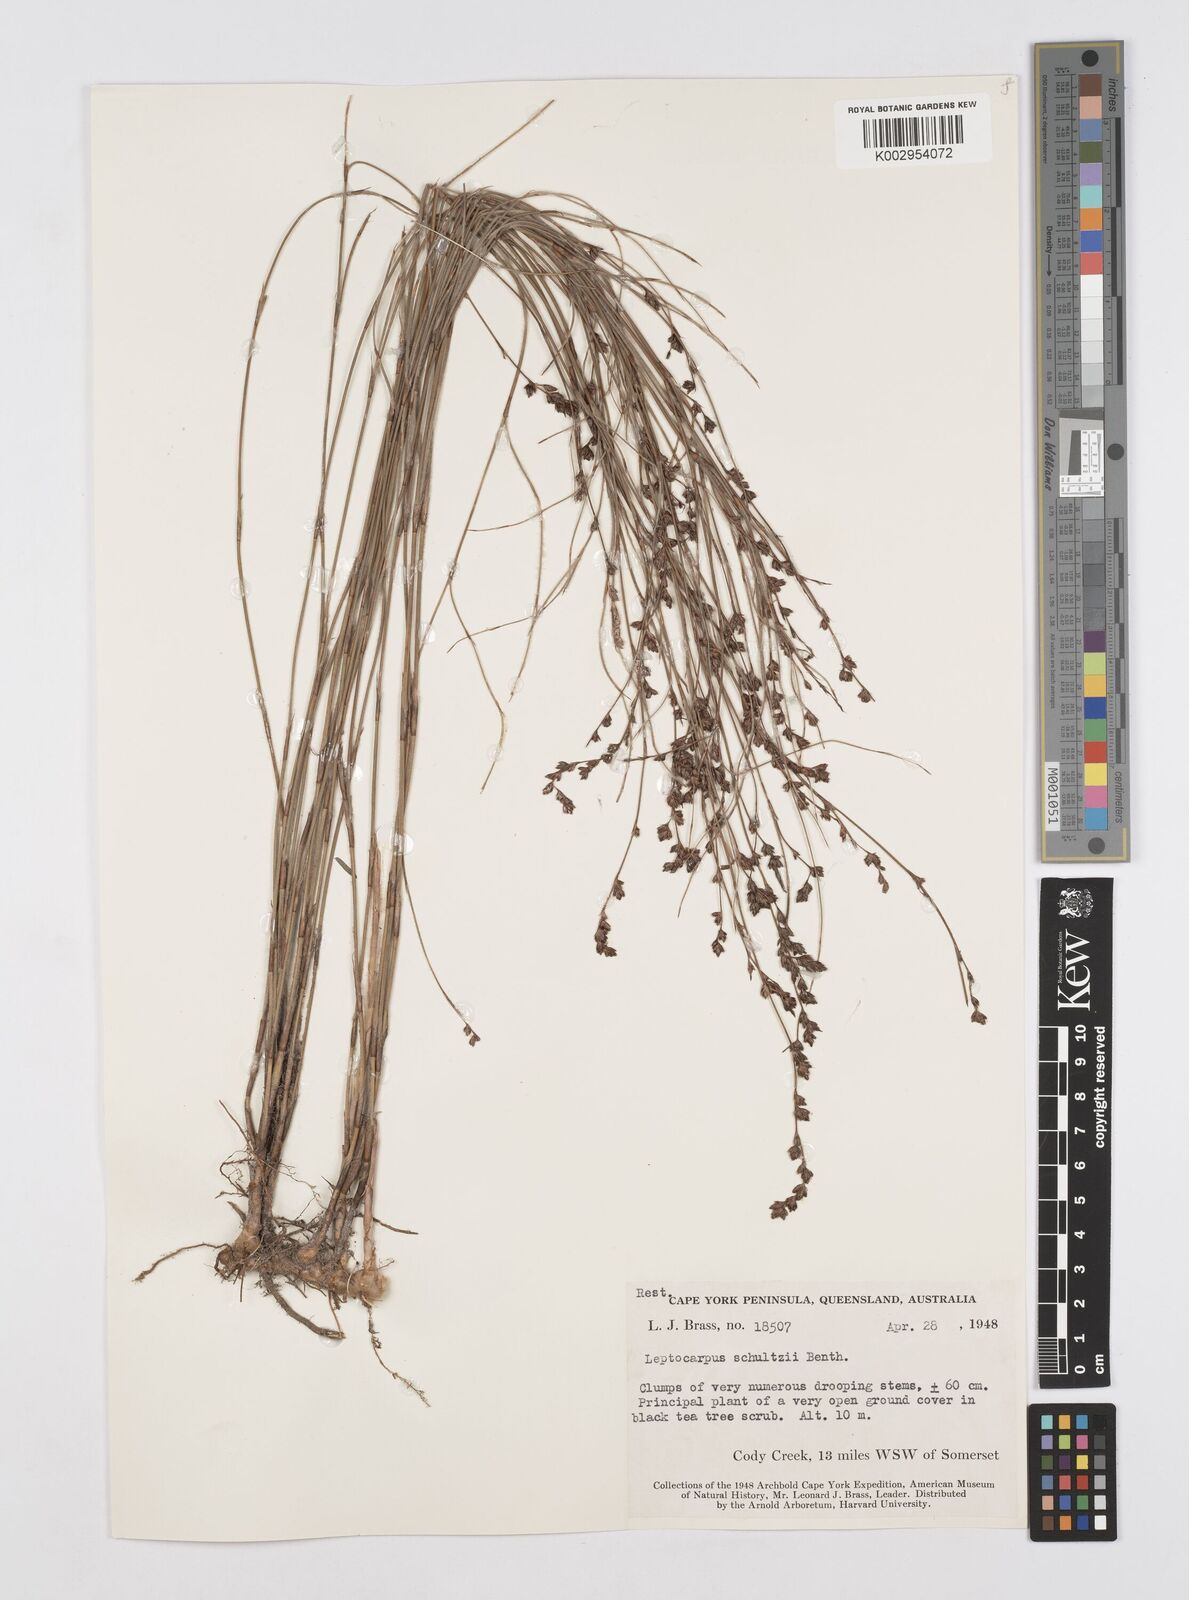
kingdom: Plantae
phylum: Tracheophyta
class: Liliopsida
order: Poales
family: Restionaceae
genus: Dapsilanthus
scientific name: Dapsilanthus spathaceus
